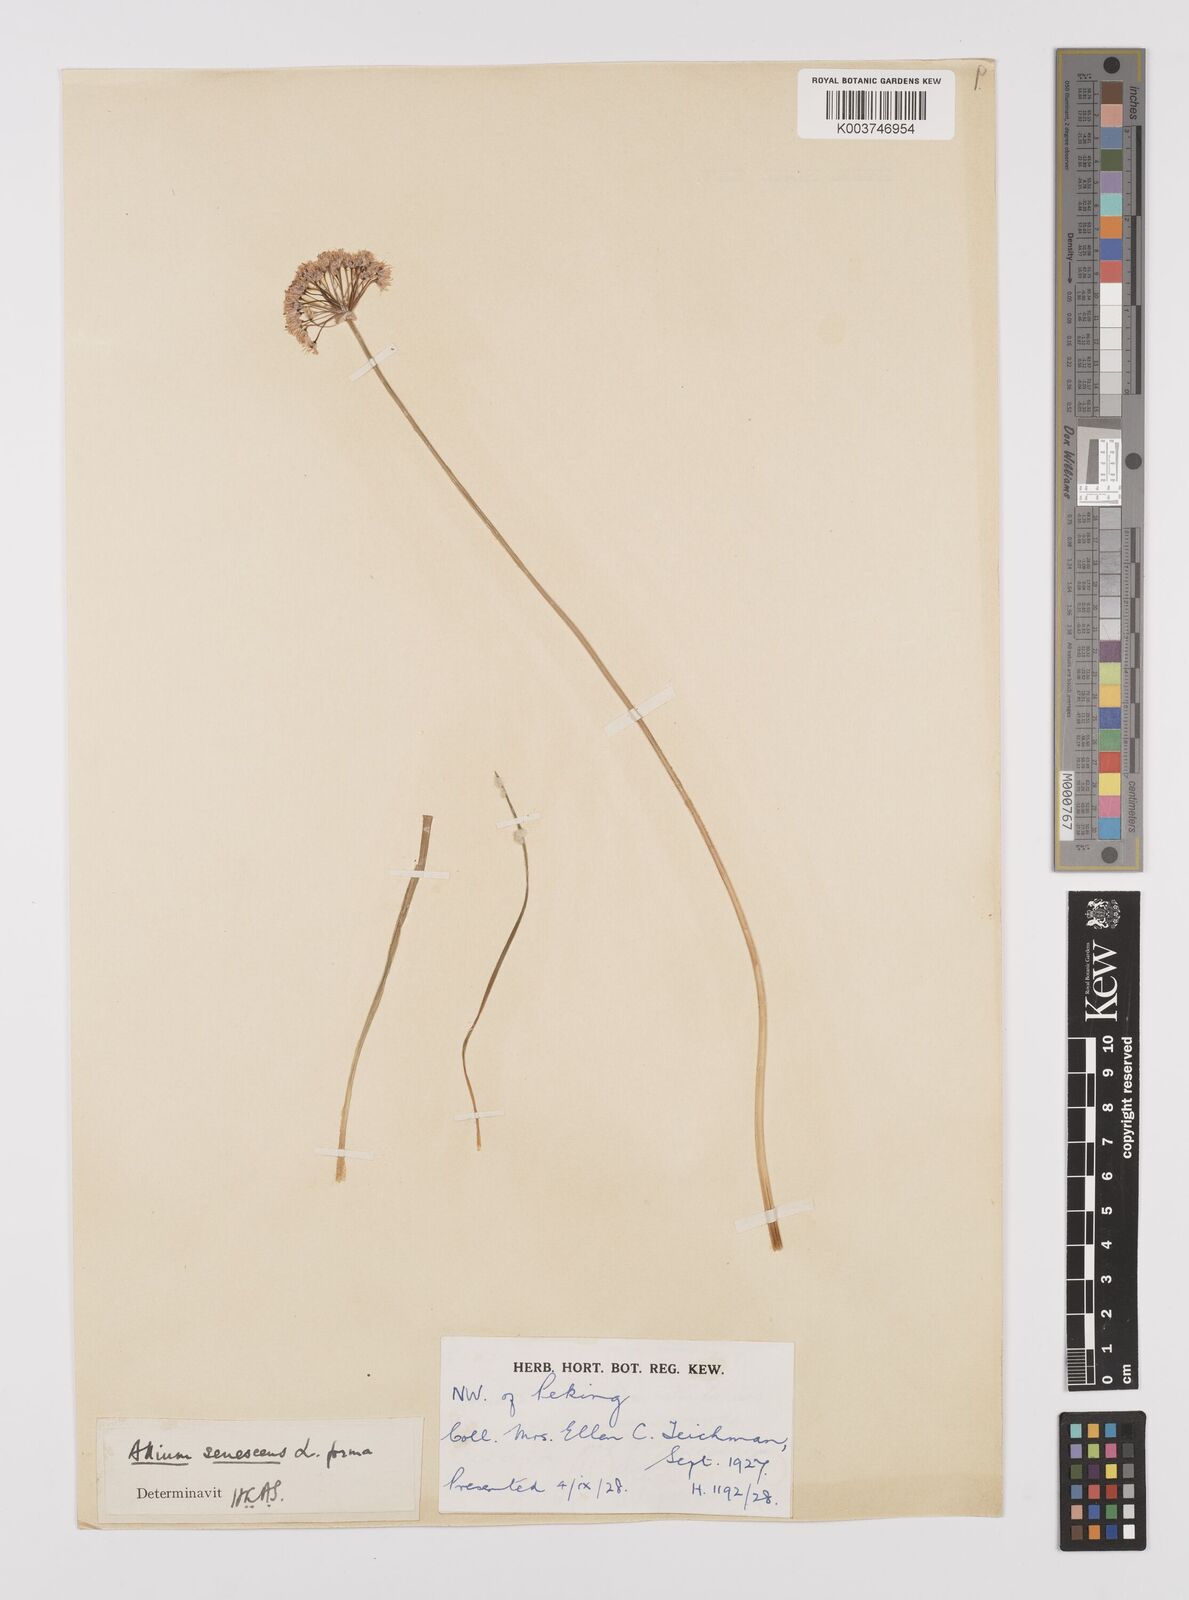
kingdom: Plantae
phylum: Tracheophyta
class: Liliopsida
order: Asparagales
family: Amaryllidaceae
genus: Allium
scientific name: Allium
